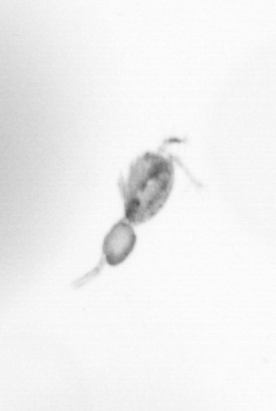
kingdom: Animalia
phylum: Arthropoda
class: Copepoda
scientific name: Copepoda
